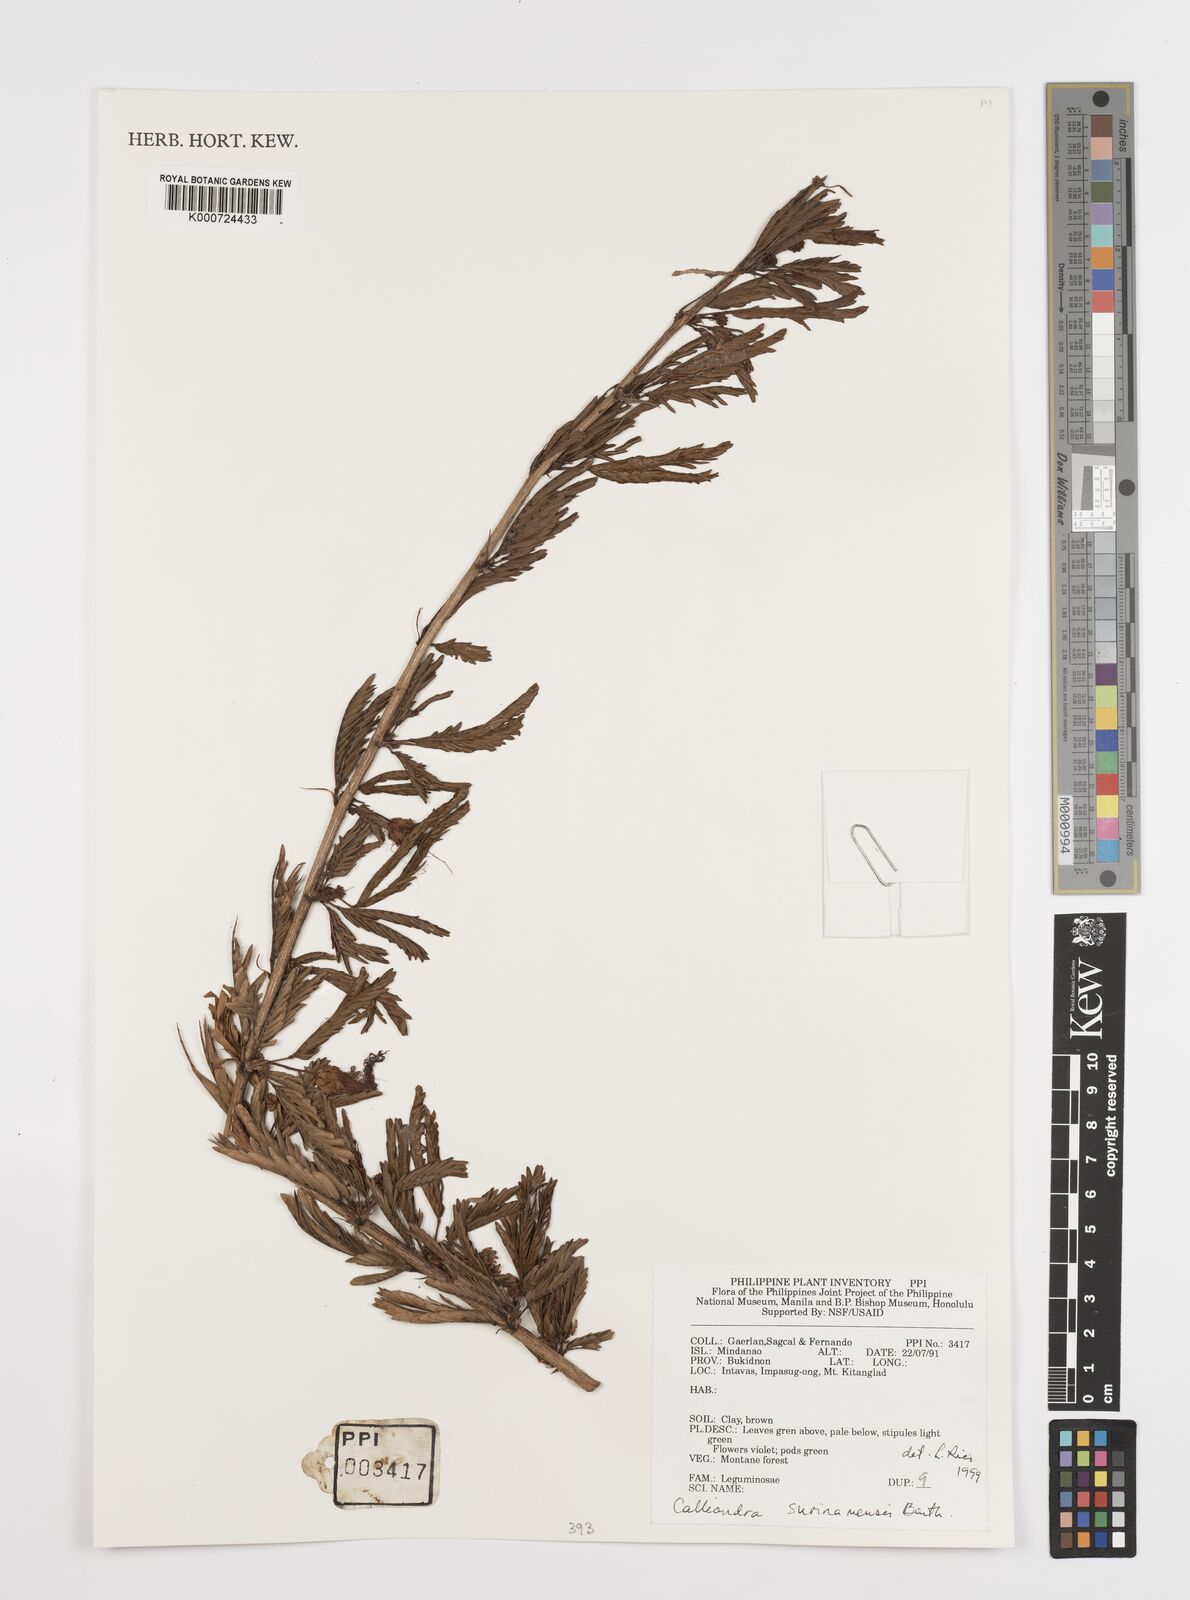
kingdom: Plantae
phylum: Tracheophyta
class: Magnoliopsida
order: Fabales
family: Fabaceae
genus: Calliandra
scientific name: Calliandra surinamensis
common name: Pink powder puff
